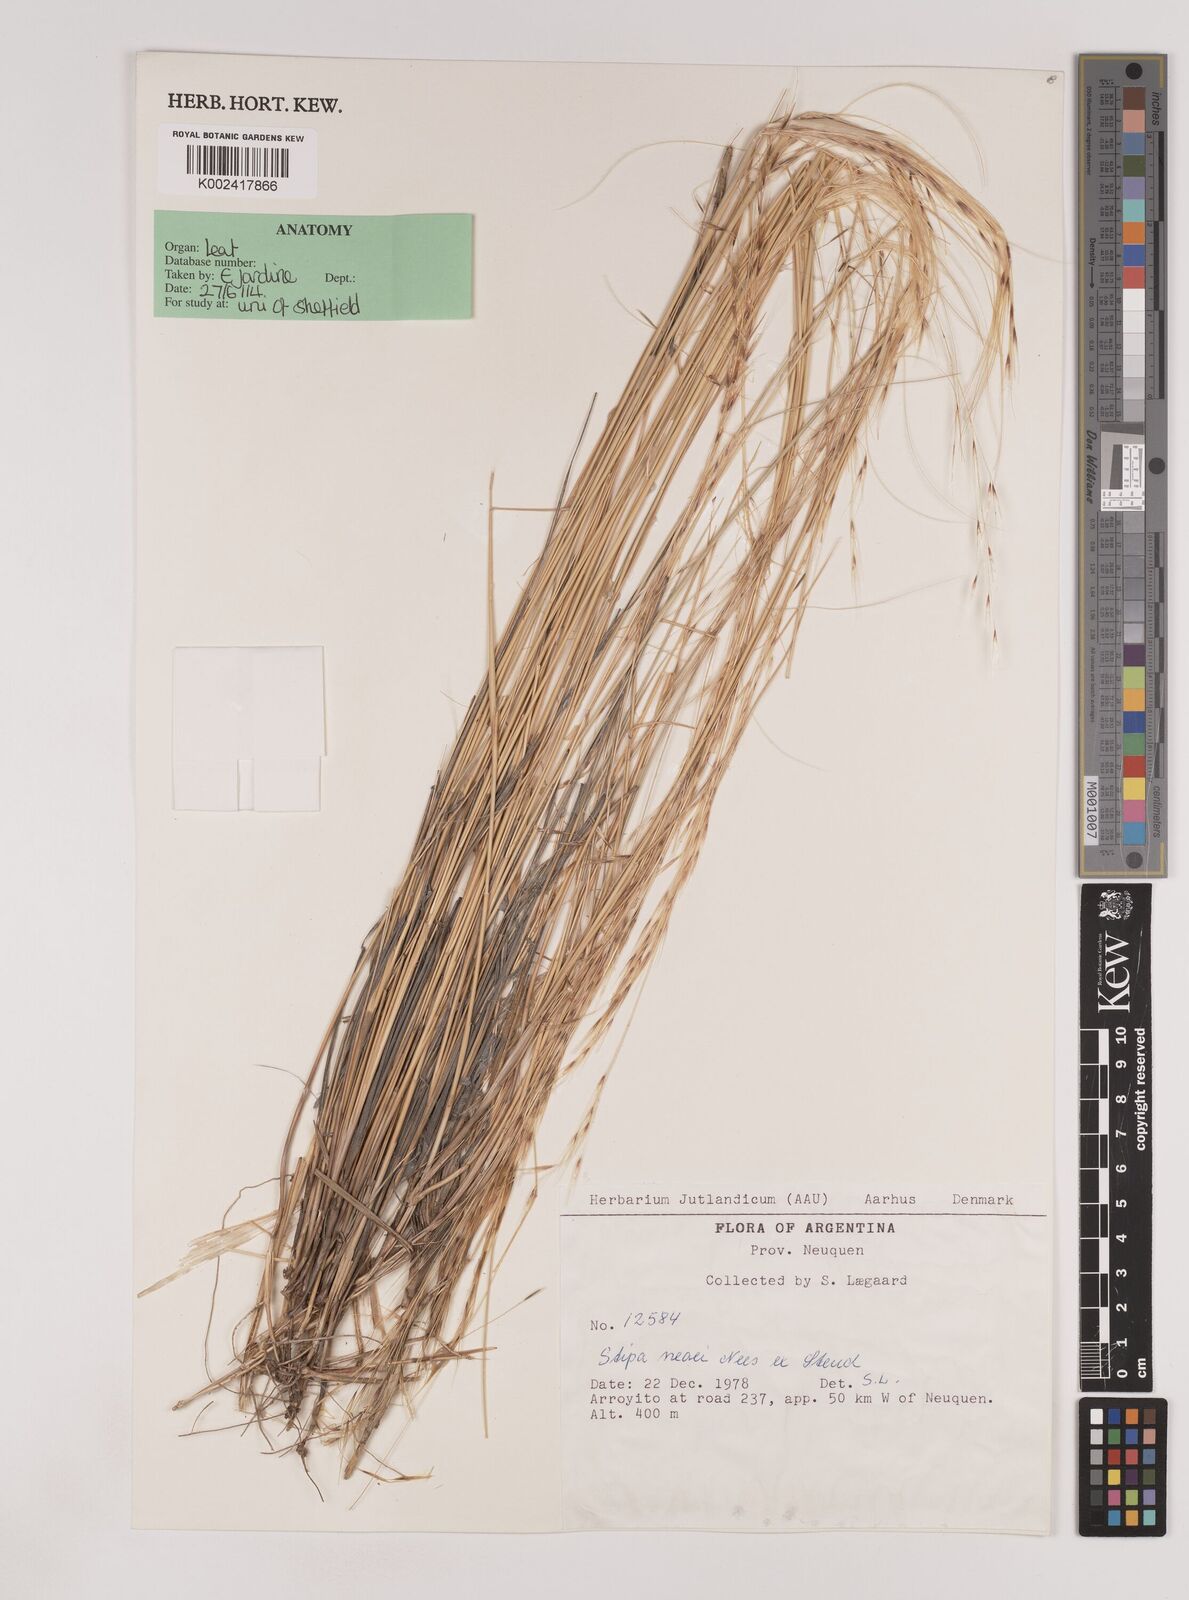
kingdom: Plantae
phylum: Tracheophyta
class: Liliopsida
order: Poales
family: Poaceae
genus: Nassella
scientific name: Nassella neesiana
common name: American needle-grass
